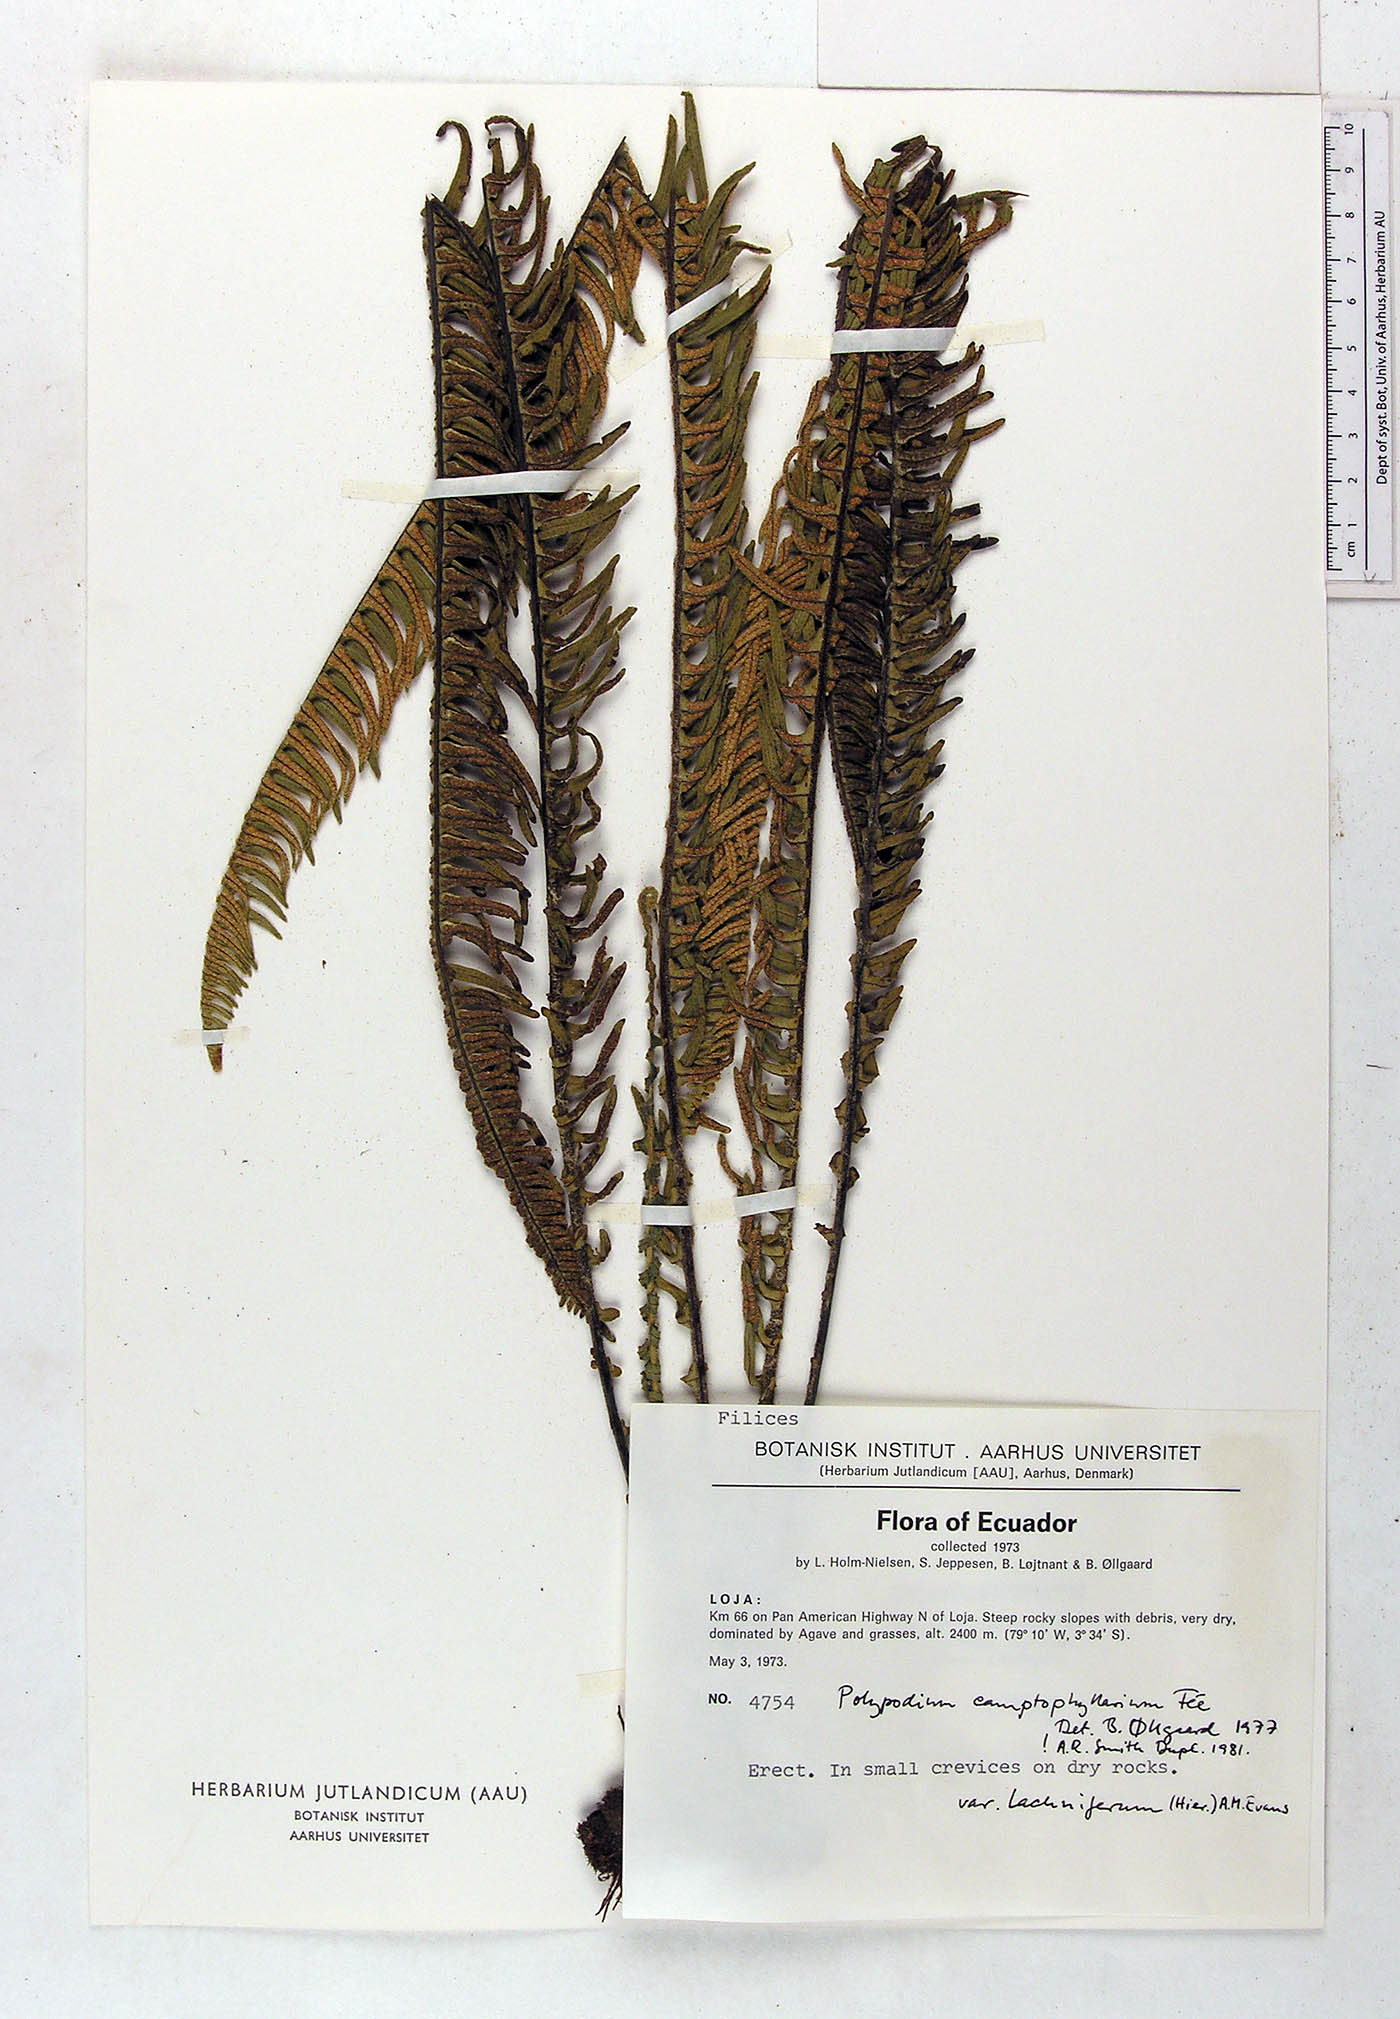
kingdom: Plantae
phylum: Tracheophyta
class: Polypodiopsida
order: Polypodiales
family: Polypodiaceae
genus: Pecluma
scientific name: Pecluma camptophyllaria
